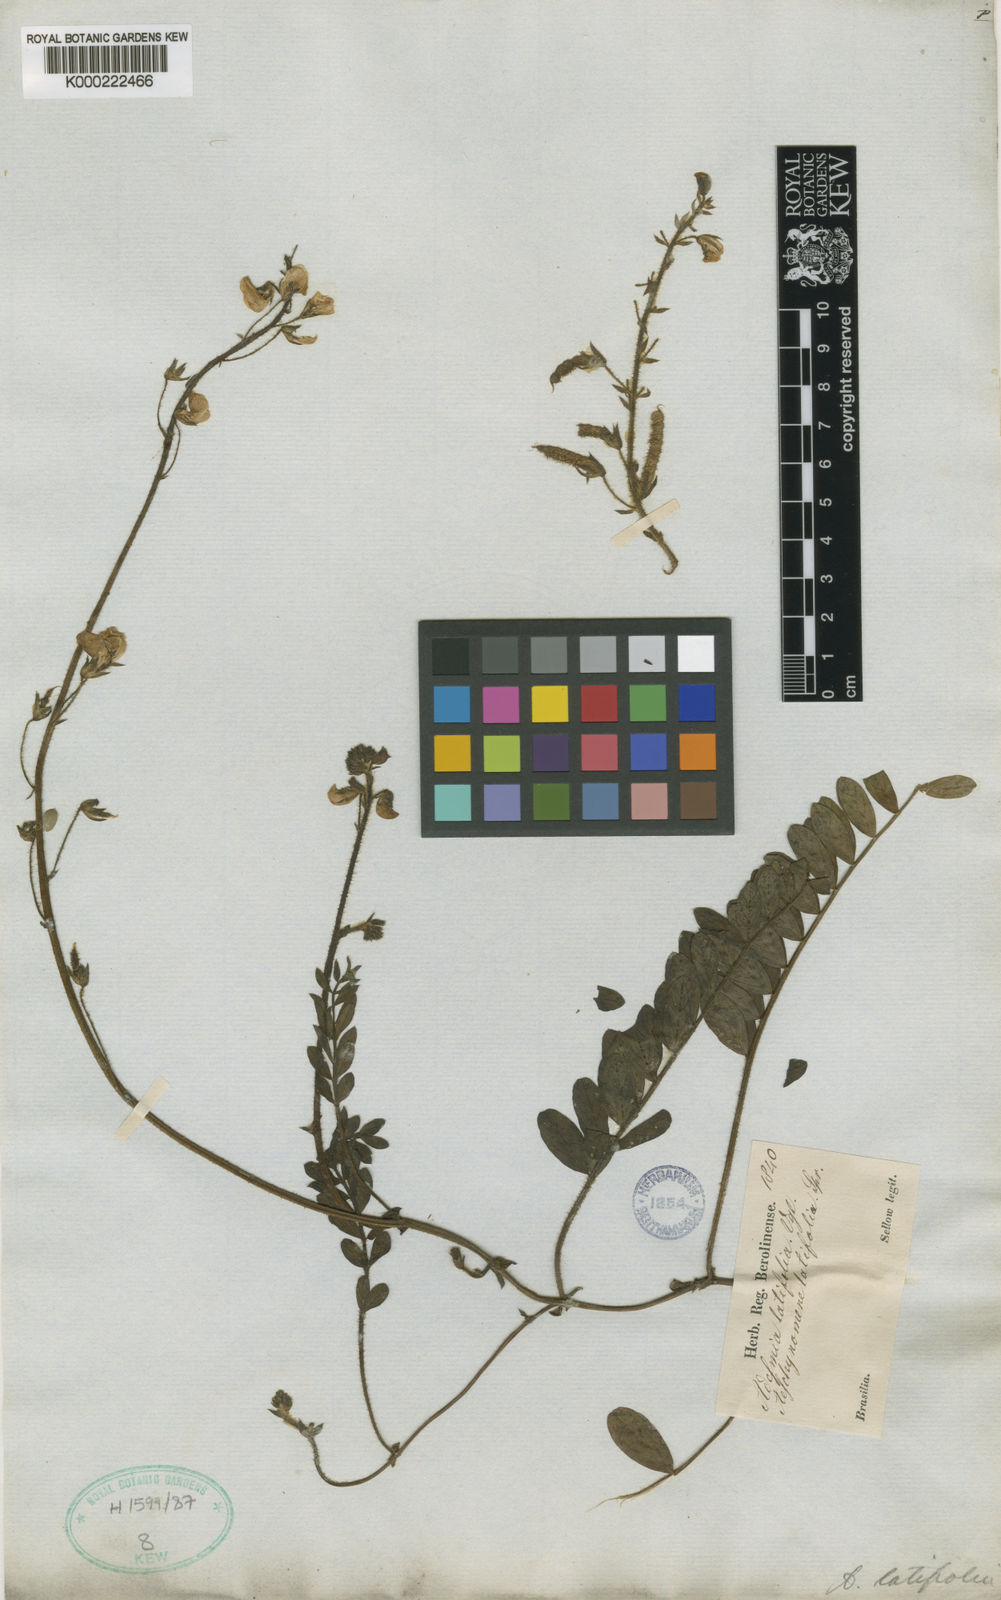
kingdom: Plantae
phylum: Tracheophyta
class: Magnoliopsida
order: Fabales
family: Fabaceae
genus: Adesmia
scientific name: Adesmia latifolia
